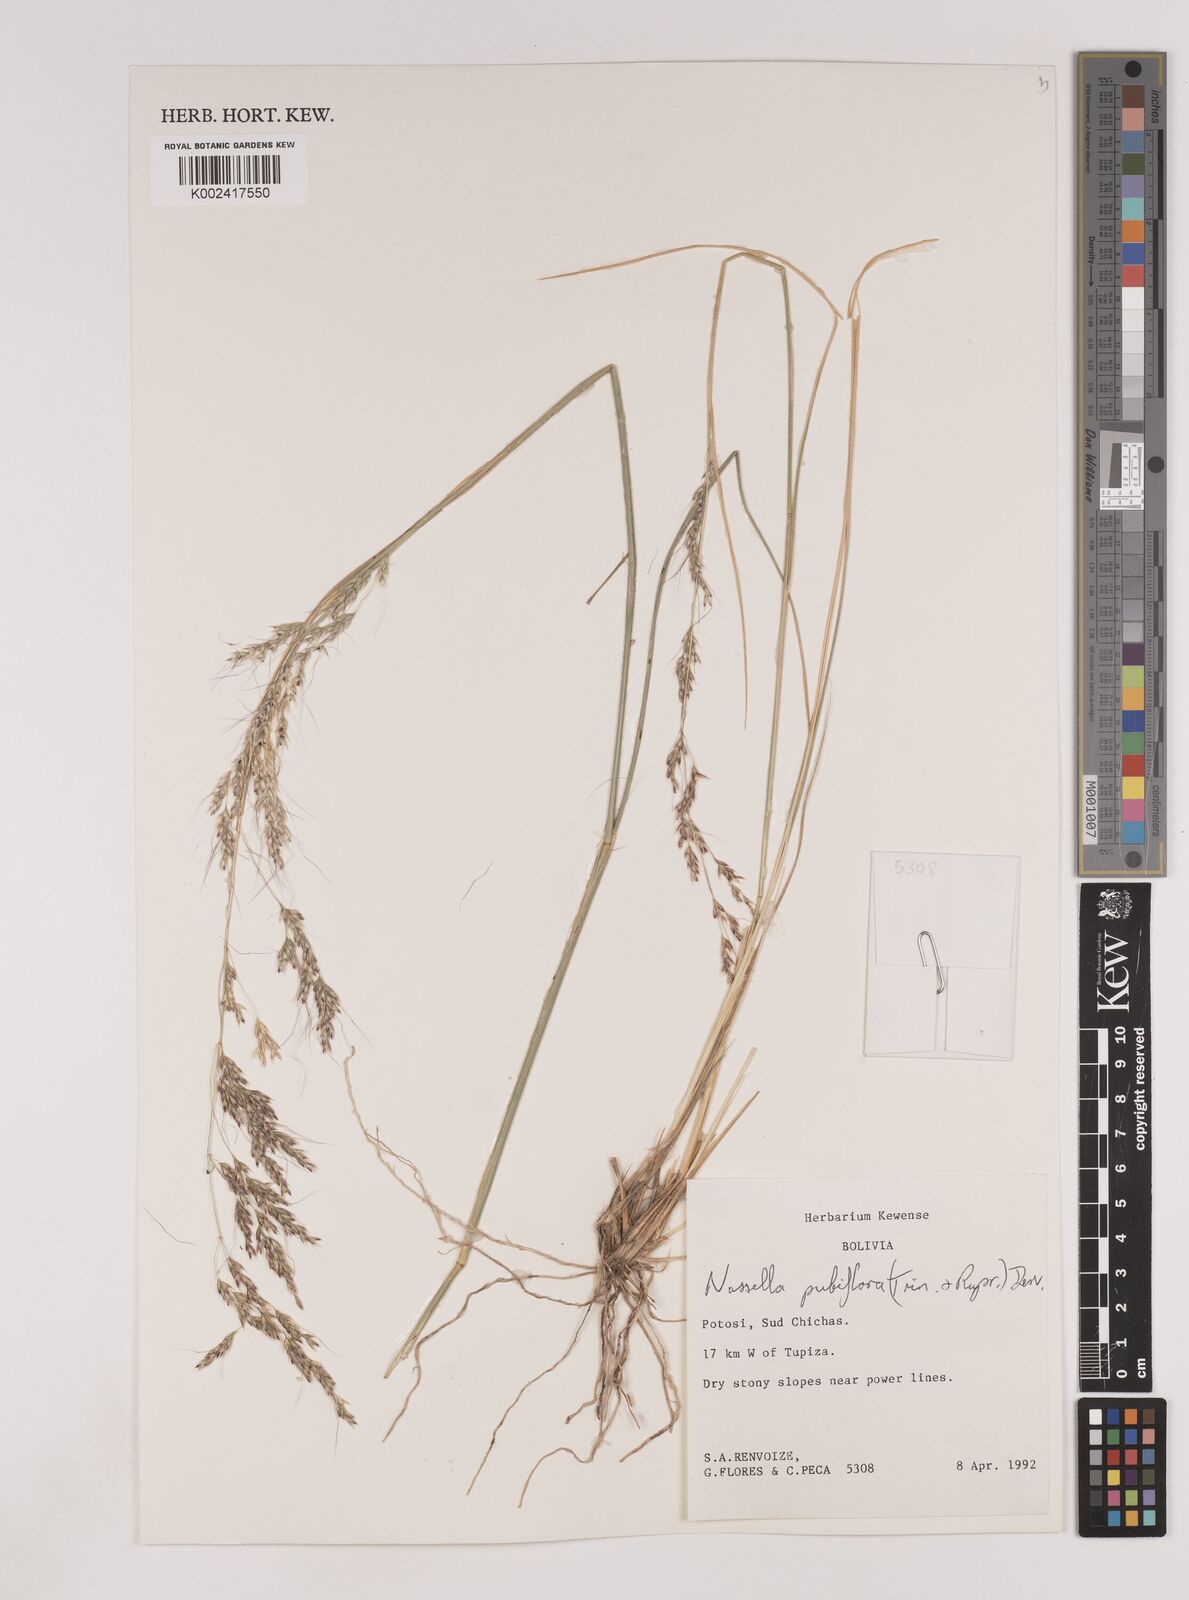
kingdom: Plantae
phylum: Tracheophyta
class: Liliopsida
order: Poales
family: Poaceae
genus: Nassella
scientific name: Nassella pubiflora
